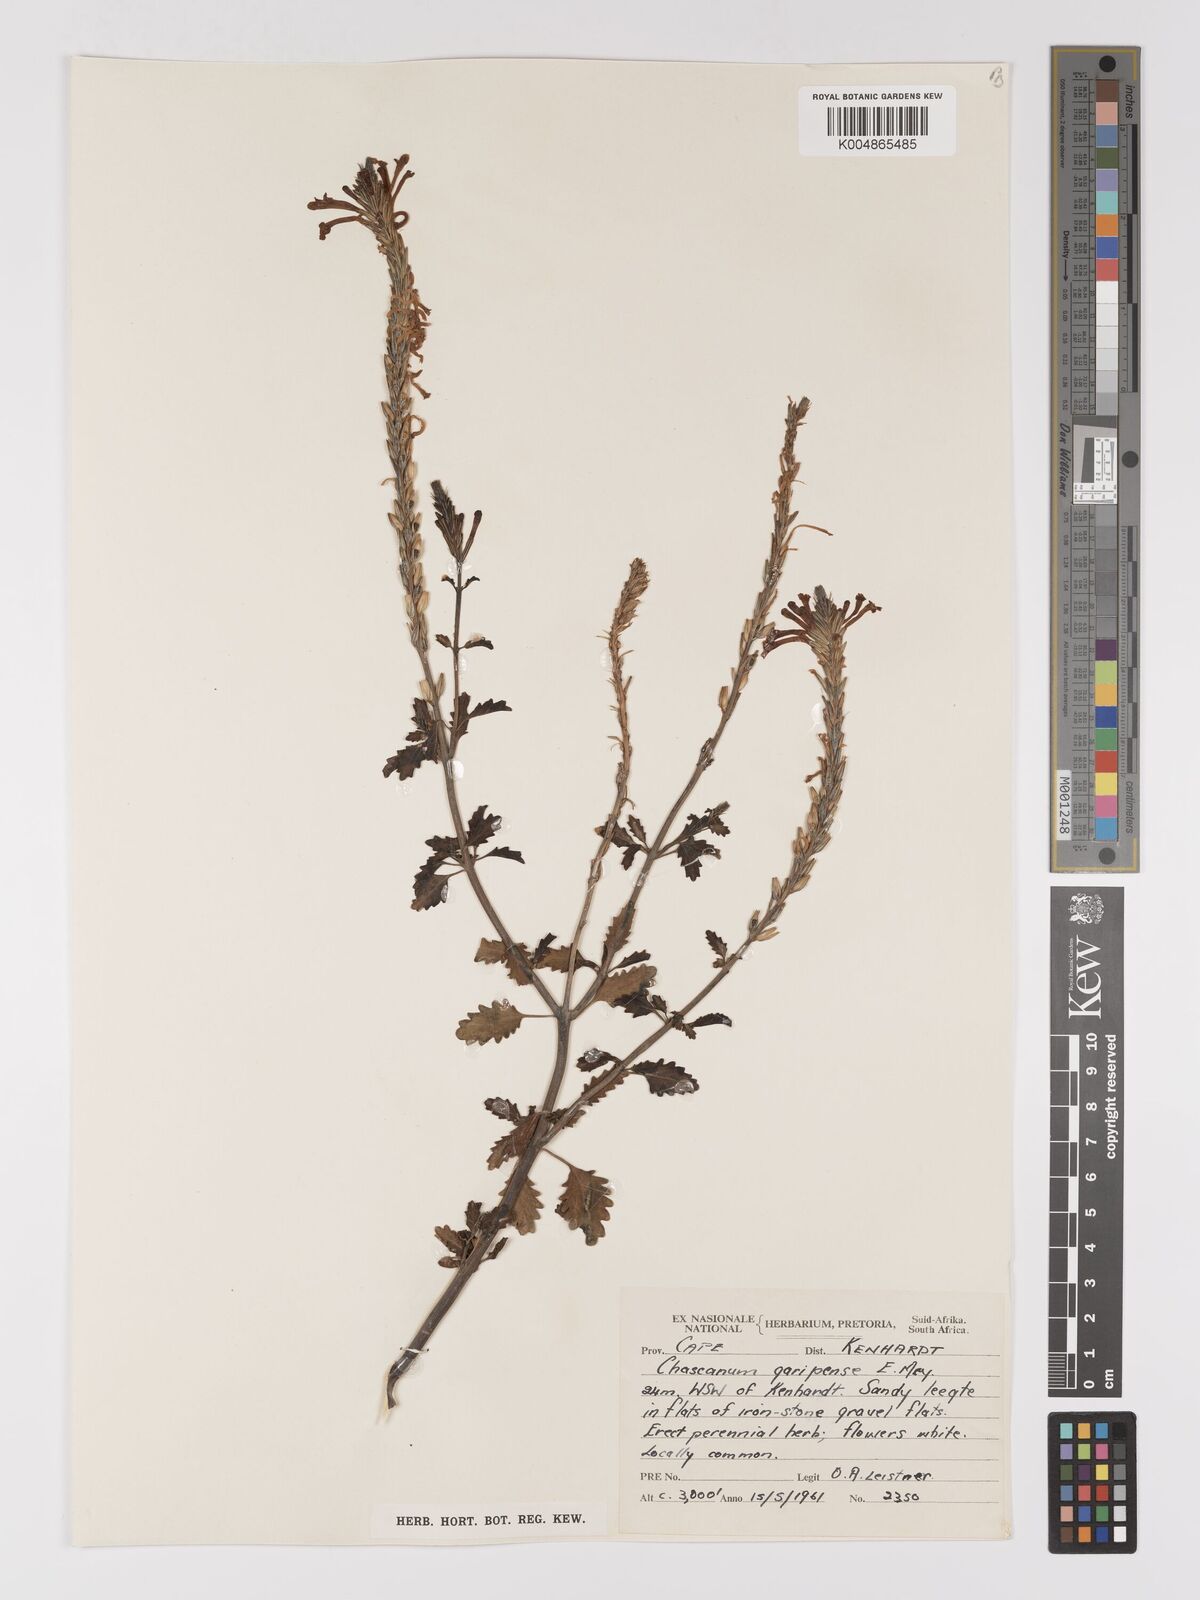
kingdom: Plantae
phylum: Tracheophyta
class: Magnoliopsida
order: Lamiales
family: Verbenaceae
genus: Chascanum
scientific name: Chascanum garipense
